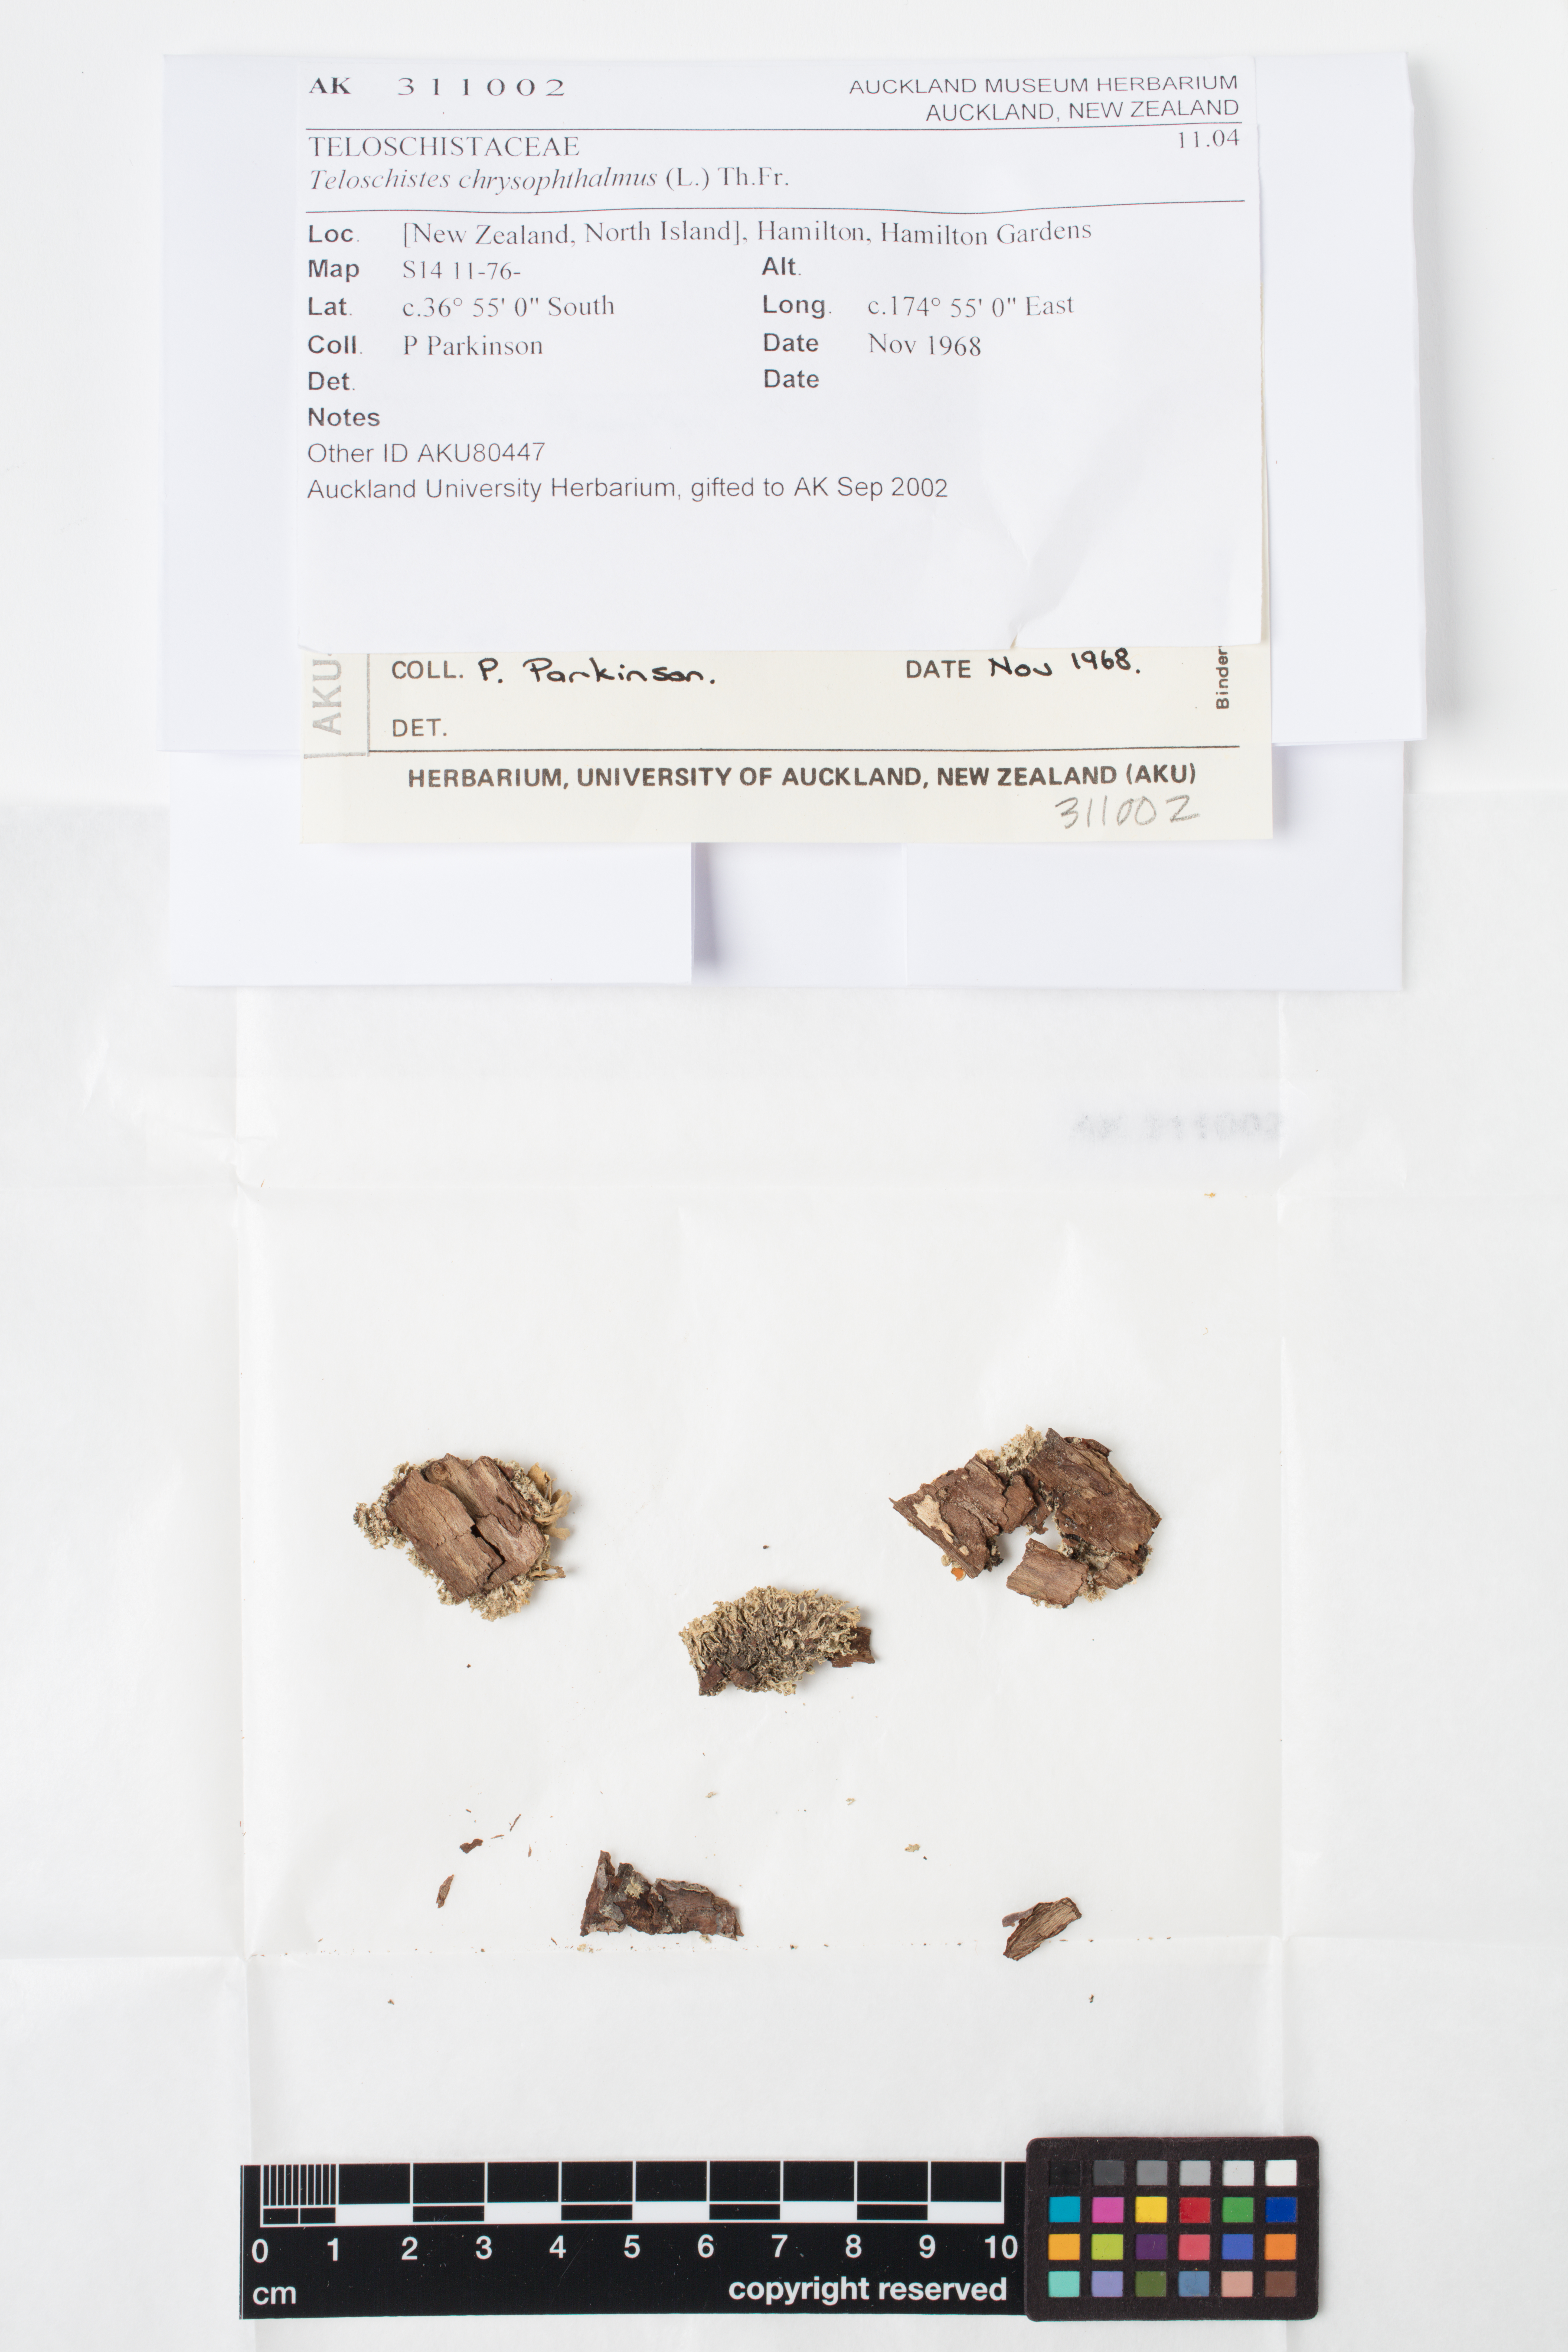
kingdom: Fungi
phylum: Ascomycota
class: Lecanoromycetes
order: Teloschistales
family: Teloschistaceae
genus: Niorma
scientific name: Niorma chrysophthalma
